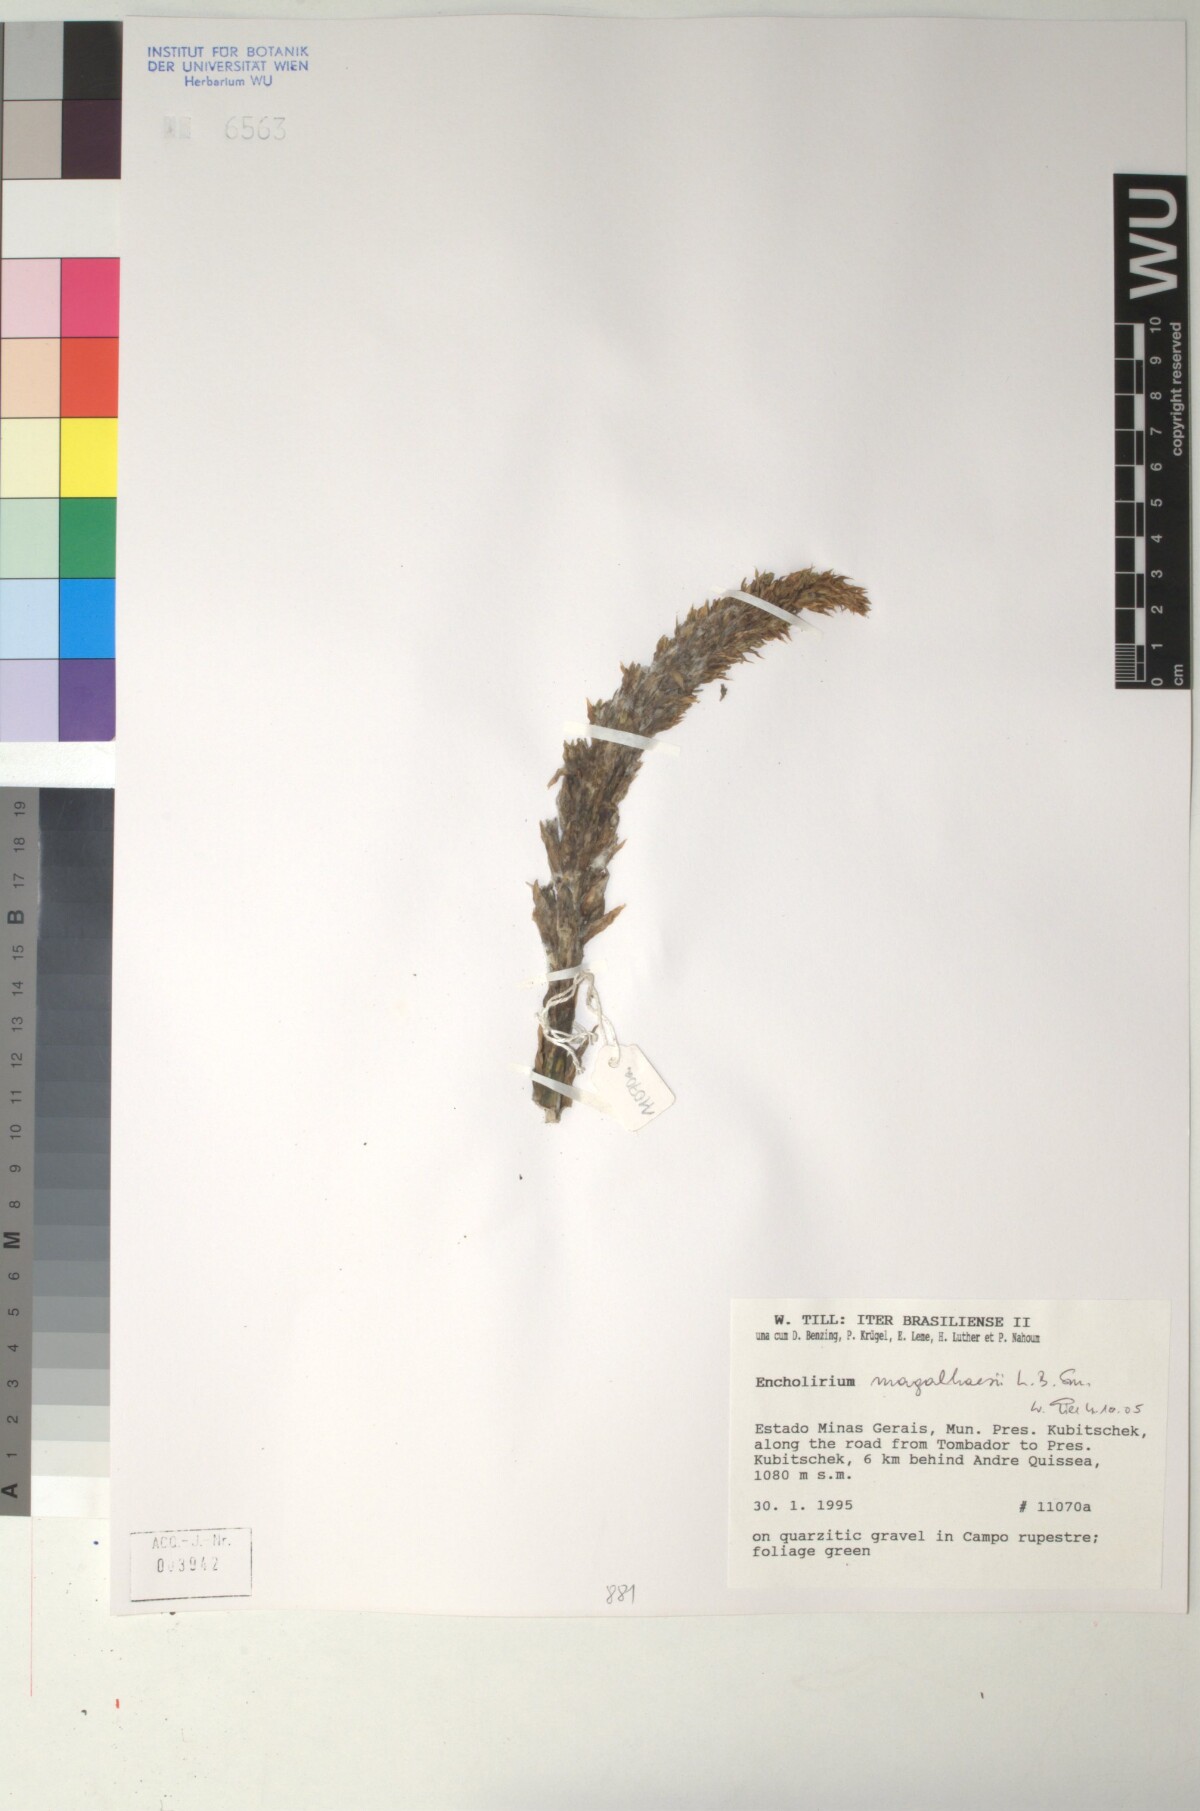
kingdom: Plantae
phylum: Tracheophyta
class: Liliopsida
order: Poales
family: Bromeliaceae
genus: Encholirium
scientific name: Encholirium magalhaesii
